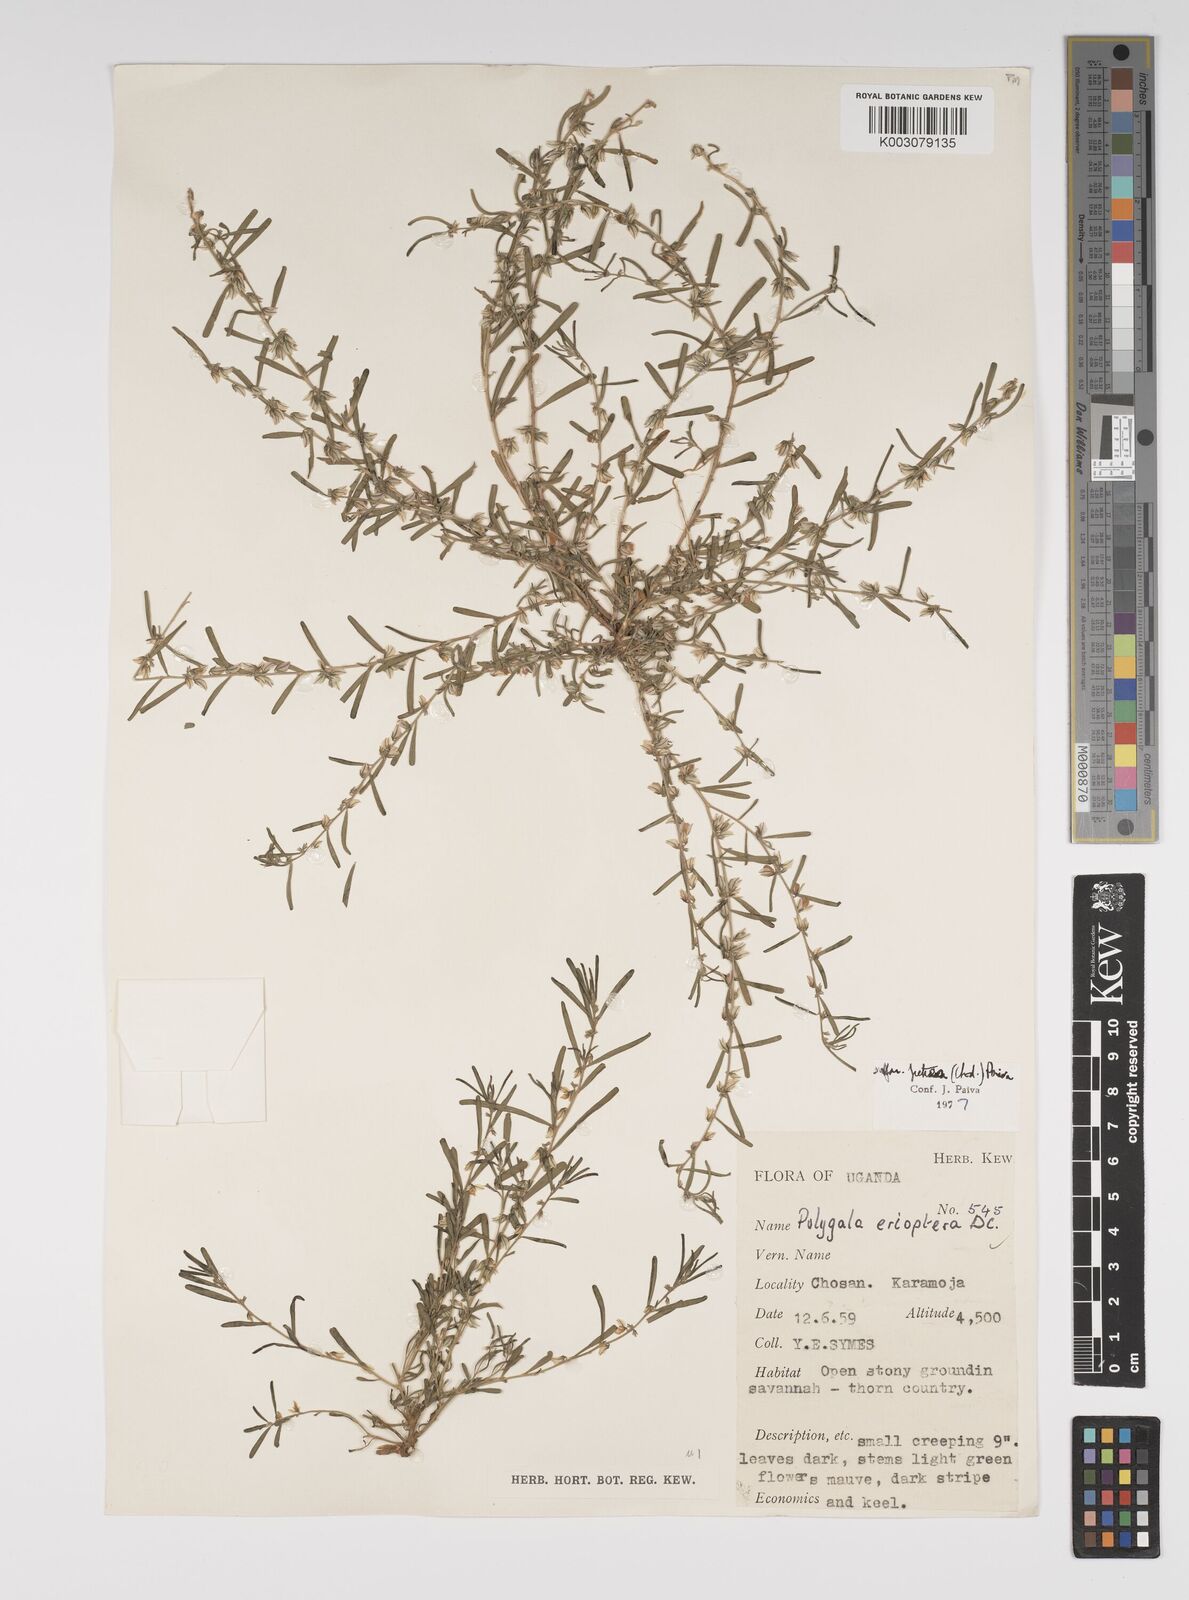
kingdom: Plantae
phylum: Tracheophyta
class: Magnoliopsida
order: Fabales
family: Polygalaceae
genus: Polygala
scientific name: Polygala erioptera
